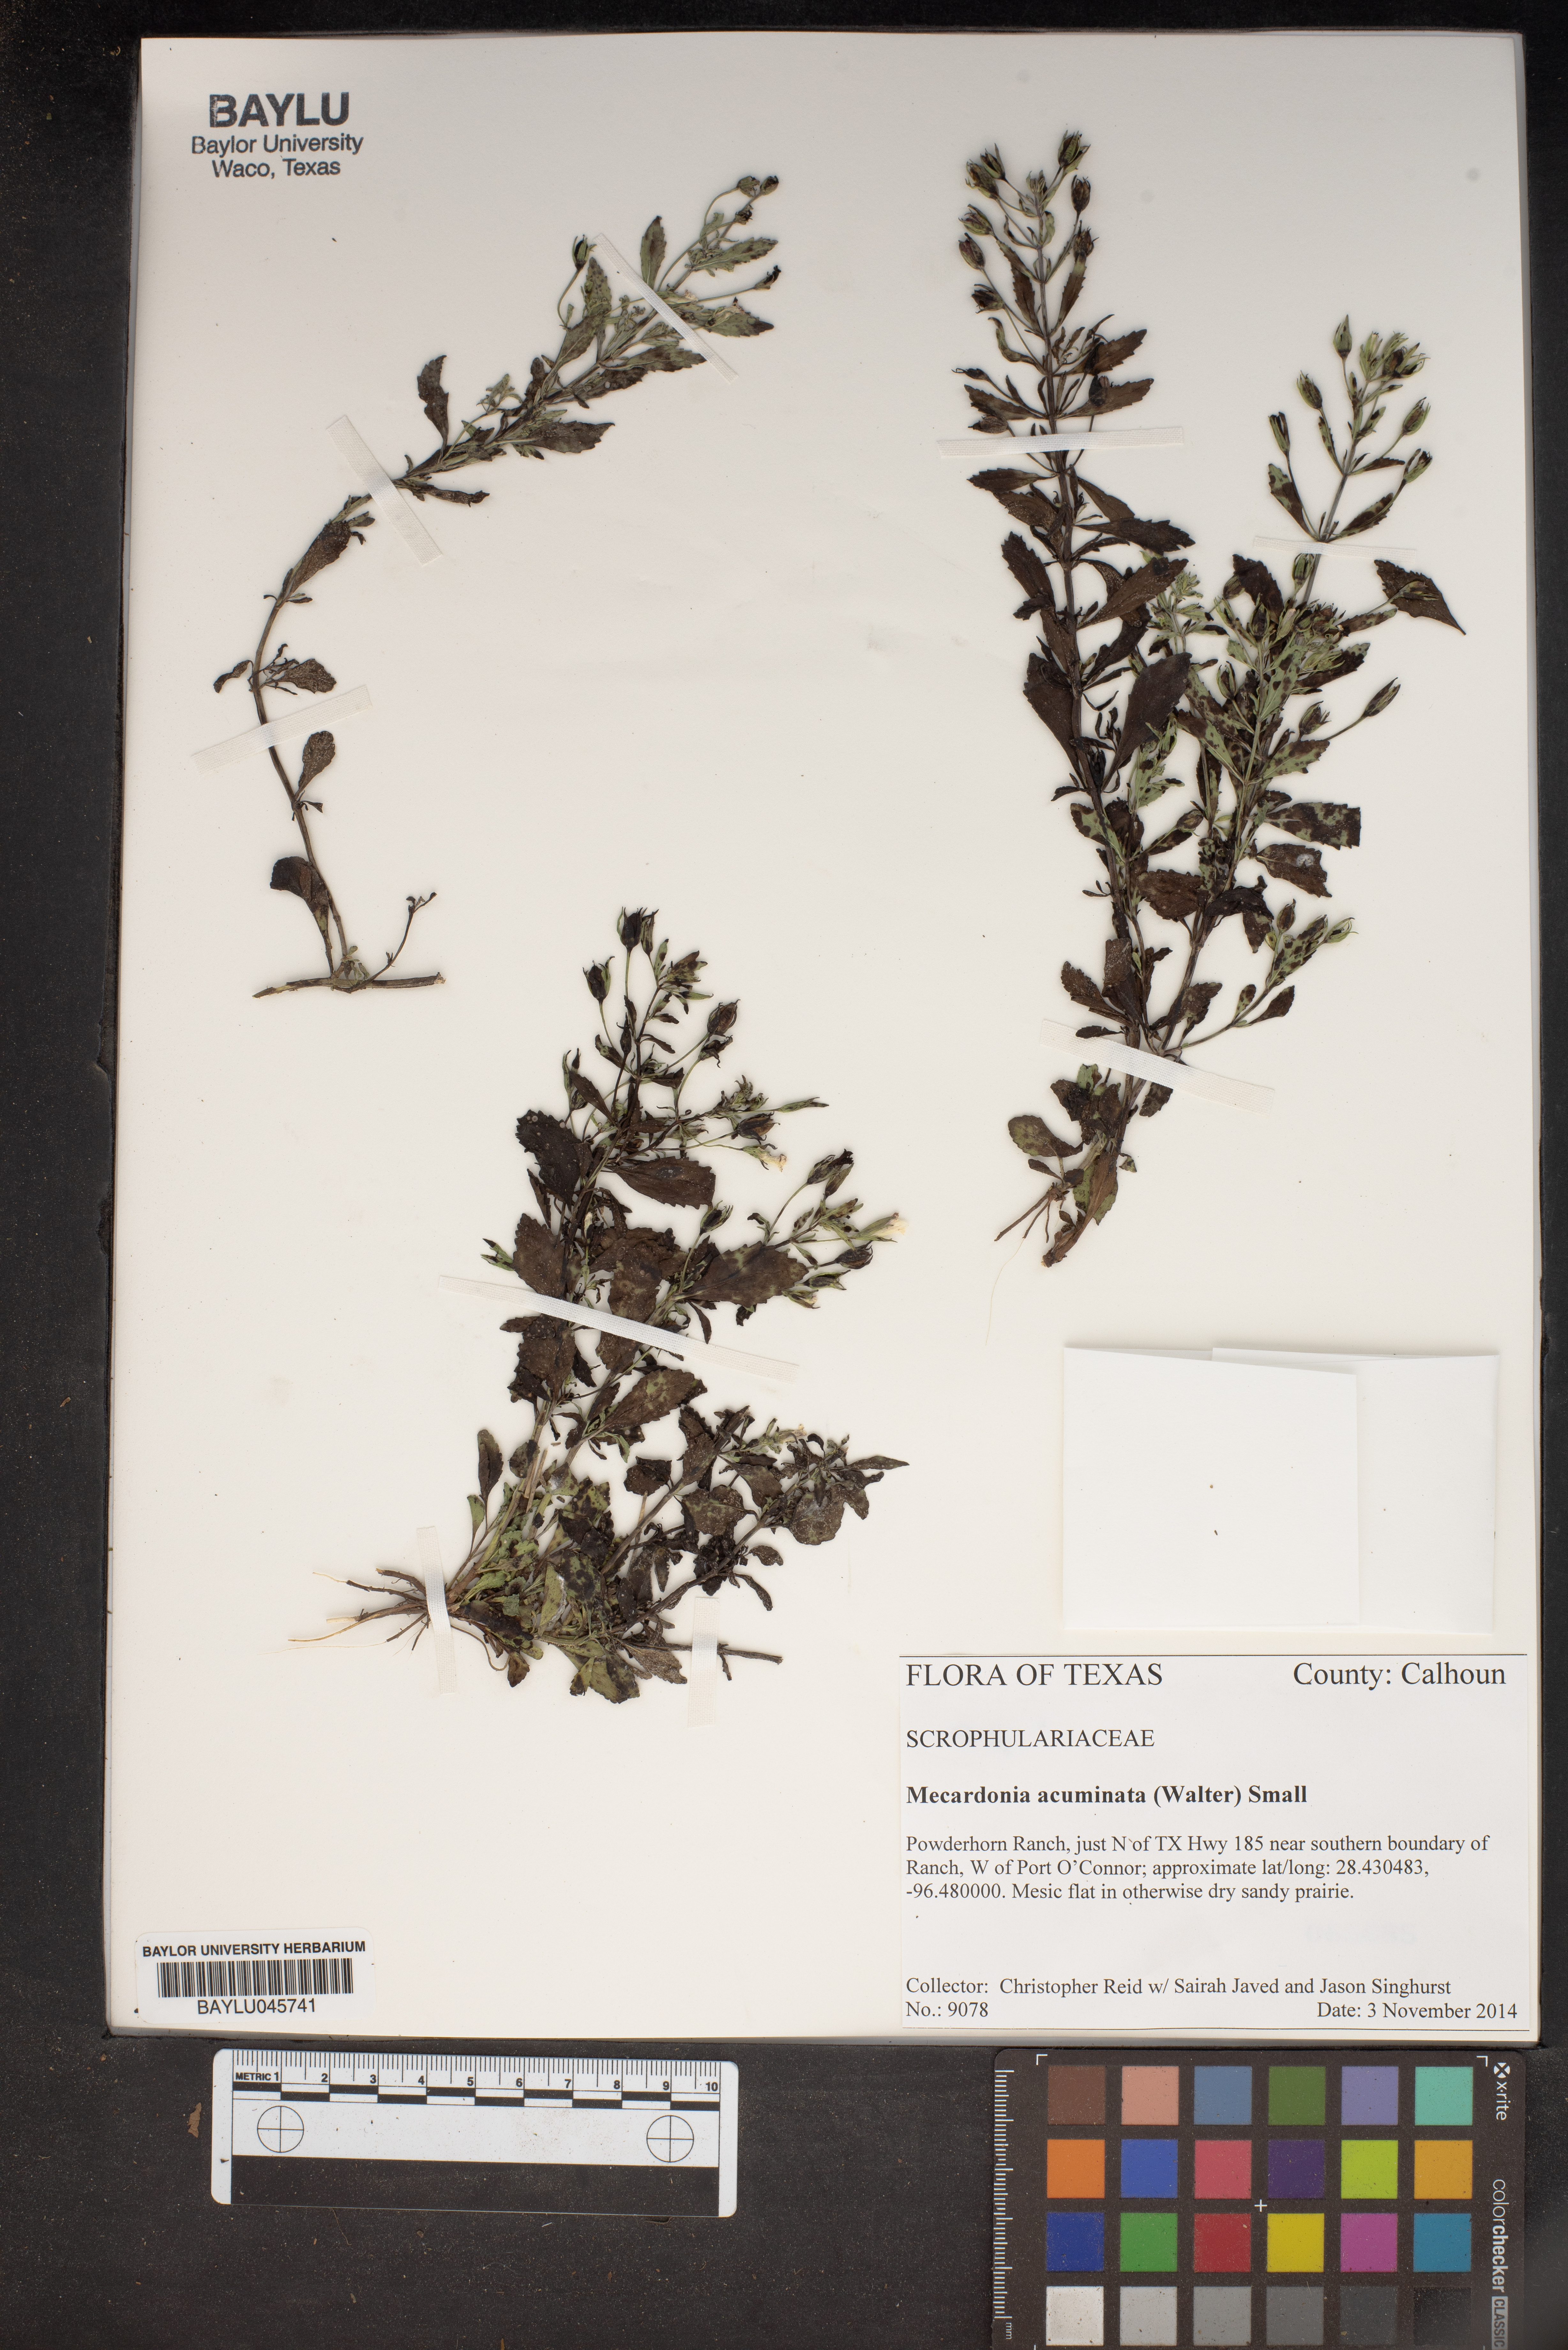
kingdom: Plantae
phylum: Tracheophyta
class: Magnoliopsida
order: Lamiales
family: Plantaginaceae
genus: Mecardonia
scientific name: Mecardonia acuminata
